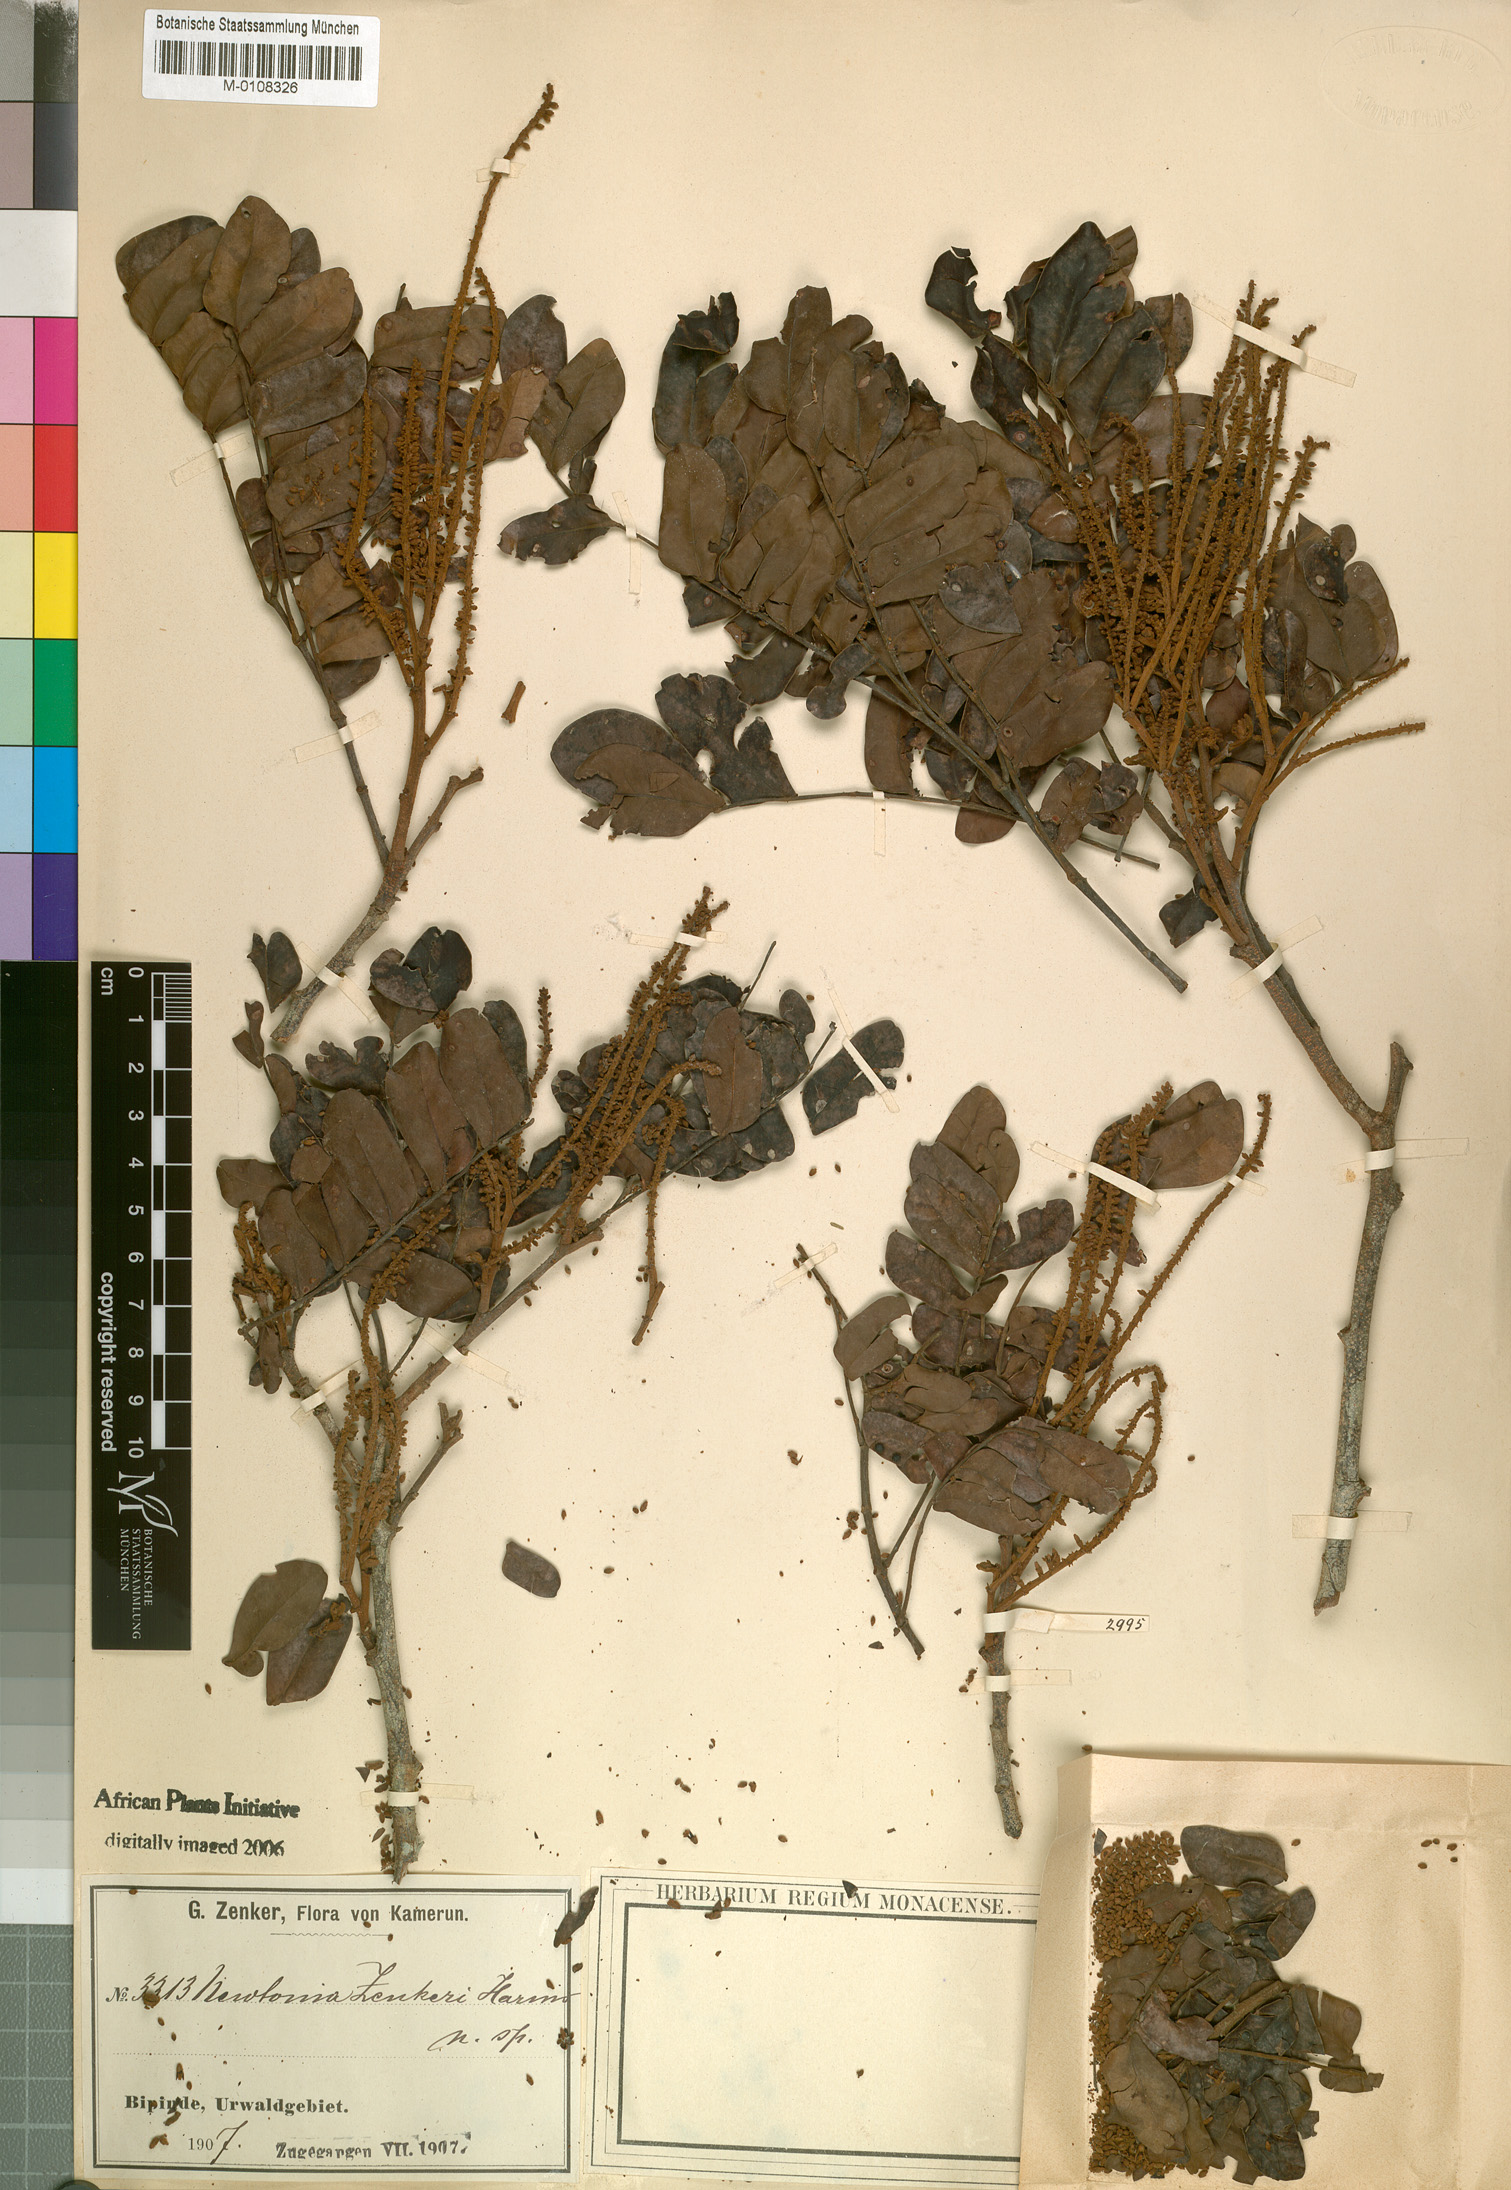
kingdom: Plantae
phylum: Tracheophyta
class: Magnoliopsida
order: Fabales
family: Fabaceae
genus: Newtonia
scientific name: Newtonia zenkeri
